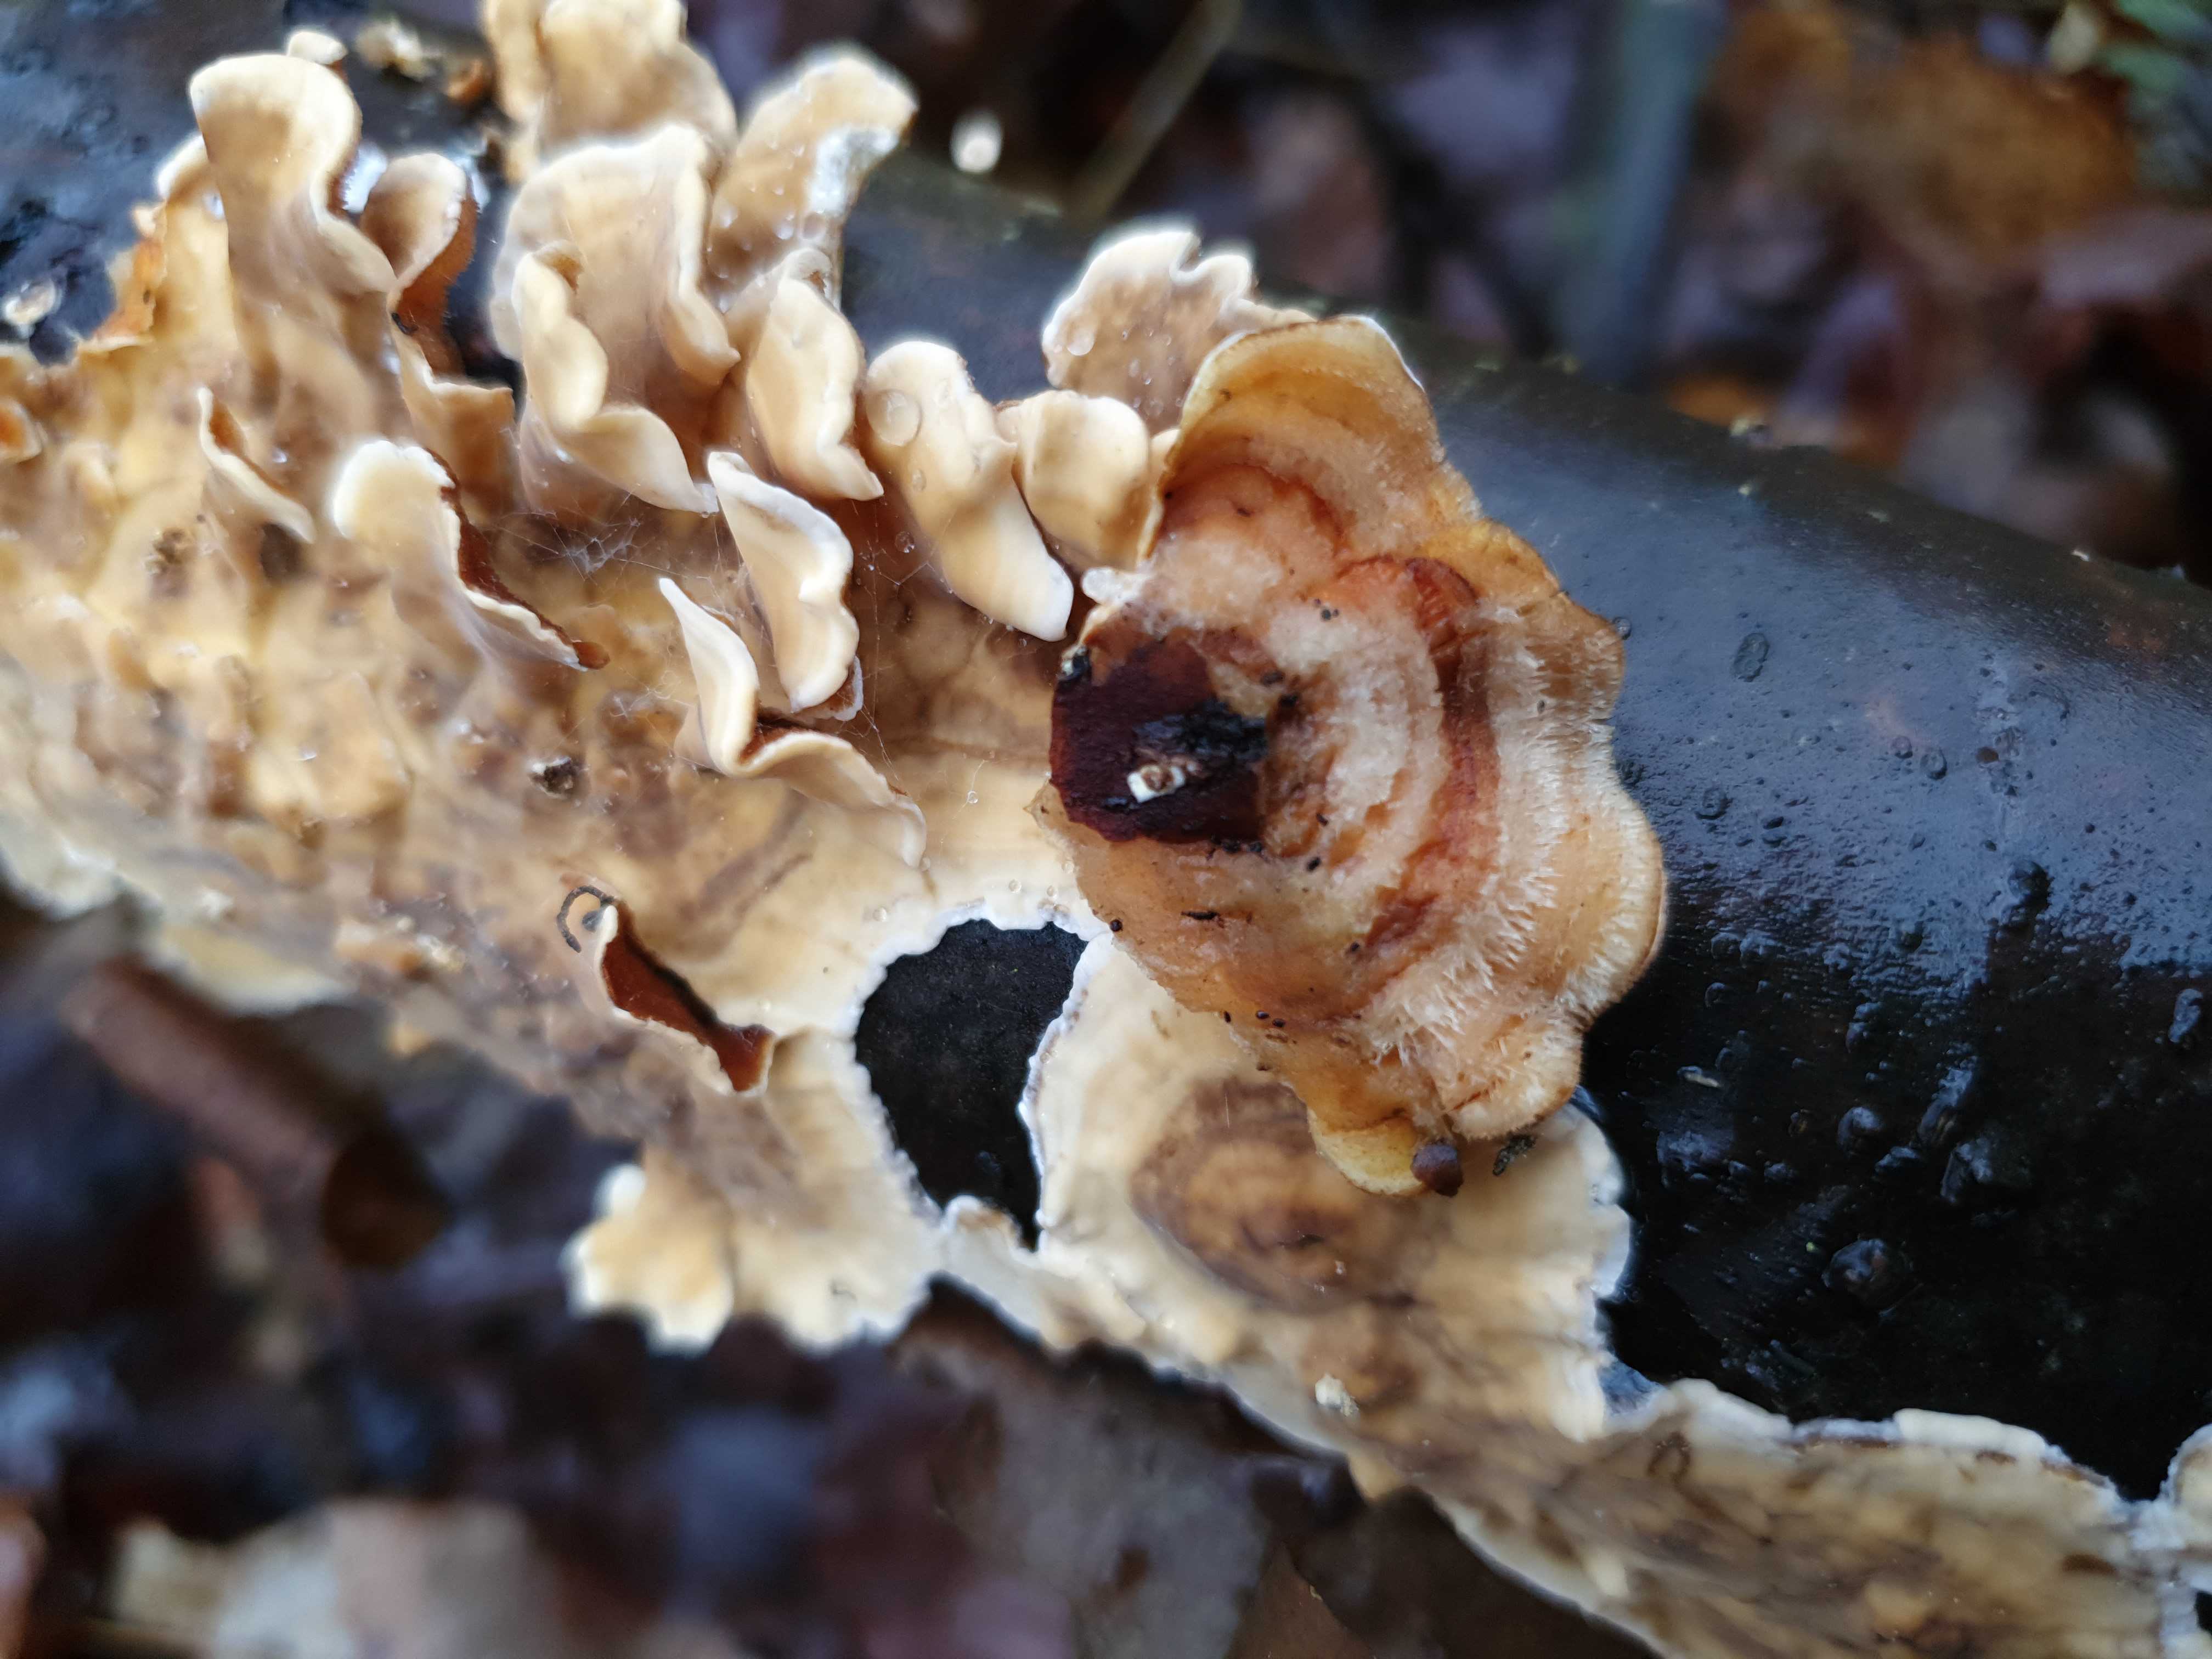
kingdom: Fungi
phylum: Basidiomycota
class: Agaricomycetes
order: Russulales
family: Stereaceae
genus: Stereum
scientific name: Stereum hirsutum
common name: håret lædersvamp
